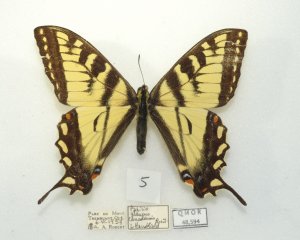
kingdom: Animalia
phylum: Arthropoda
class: Insecta
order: Lepidoptera
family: Papilionidae
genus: Pterourus
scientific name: Pterourus canadensis
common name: Canadian Tiger Swallowtail
